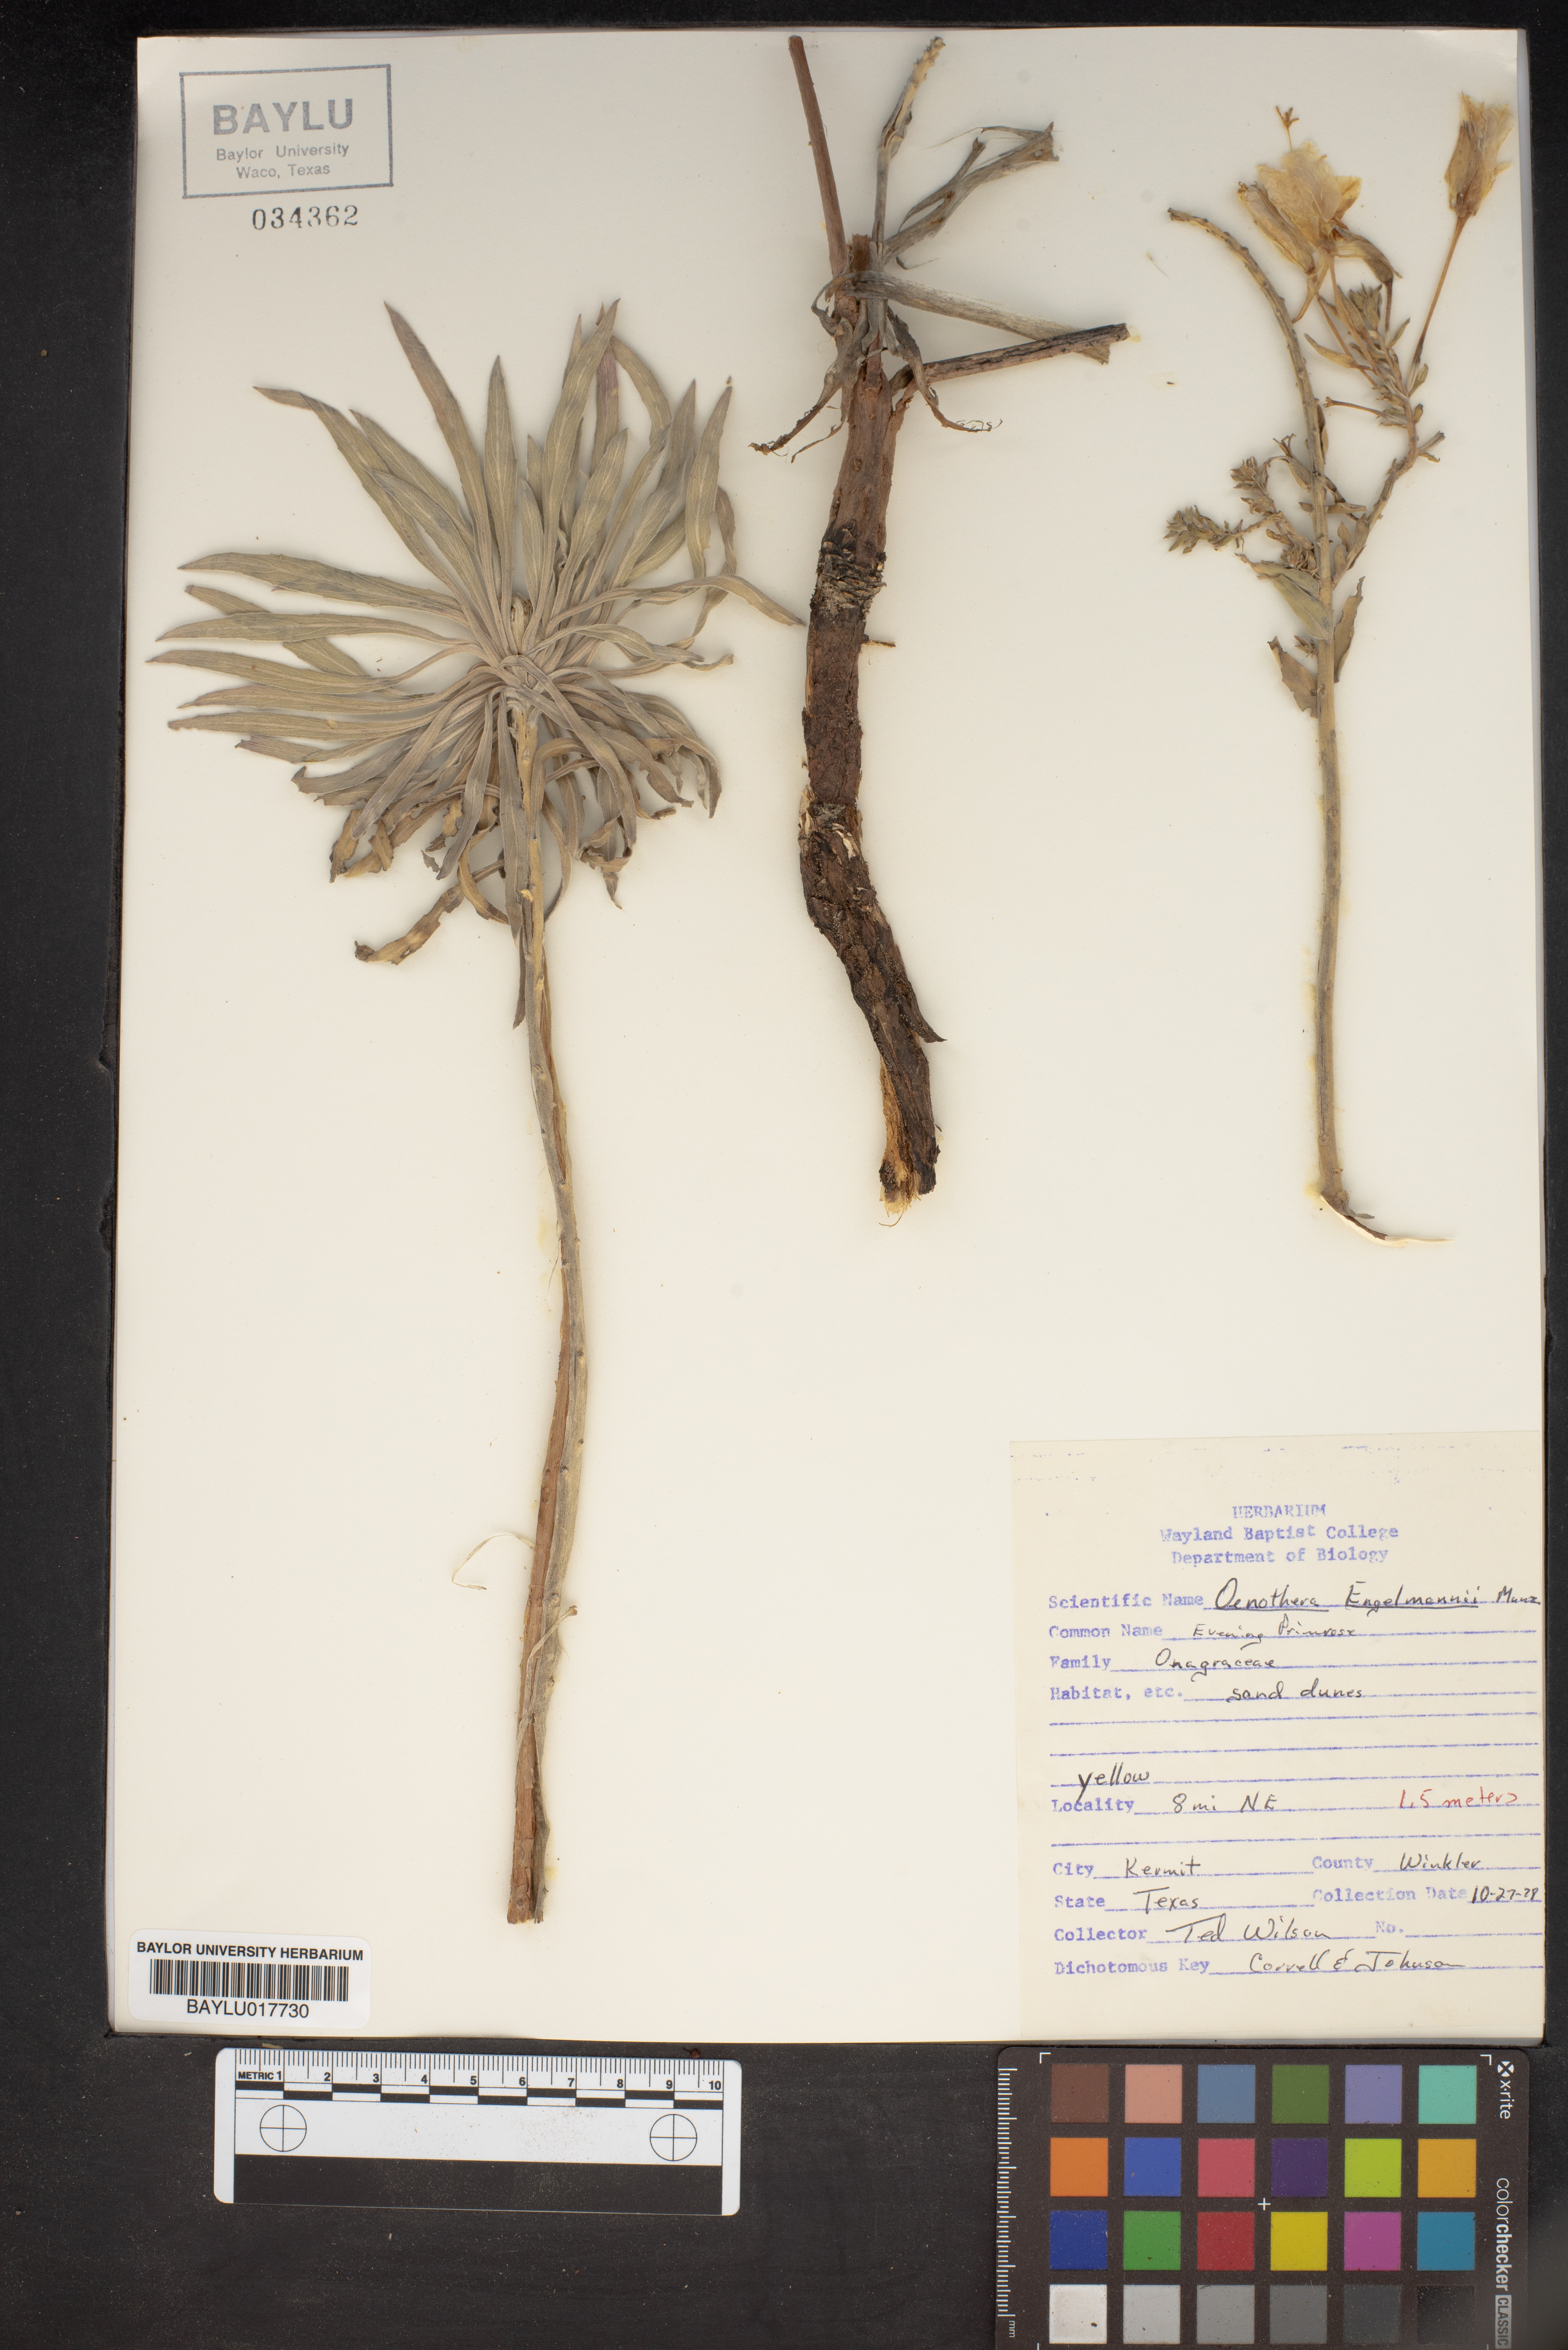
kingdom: Plantae
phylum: Tracheophyta
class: Magnoliopsida
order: Myrtales
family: Onagraceae
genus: Oenothera
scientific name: Oenothera engelmannii
